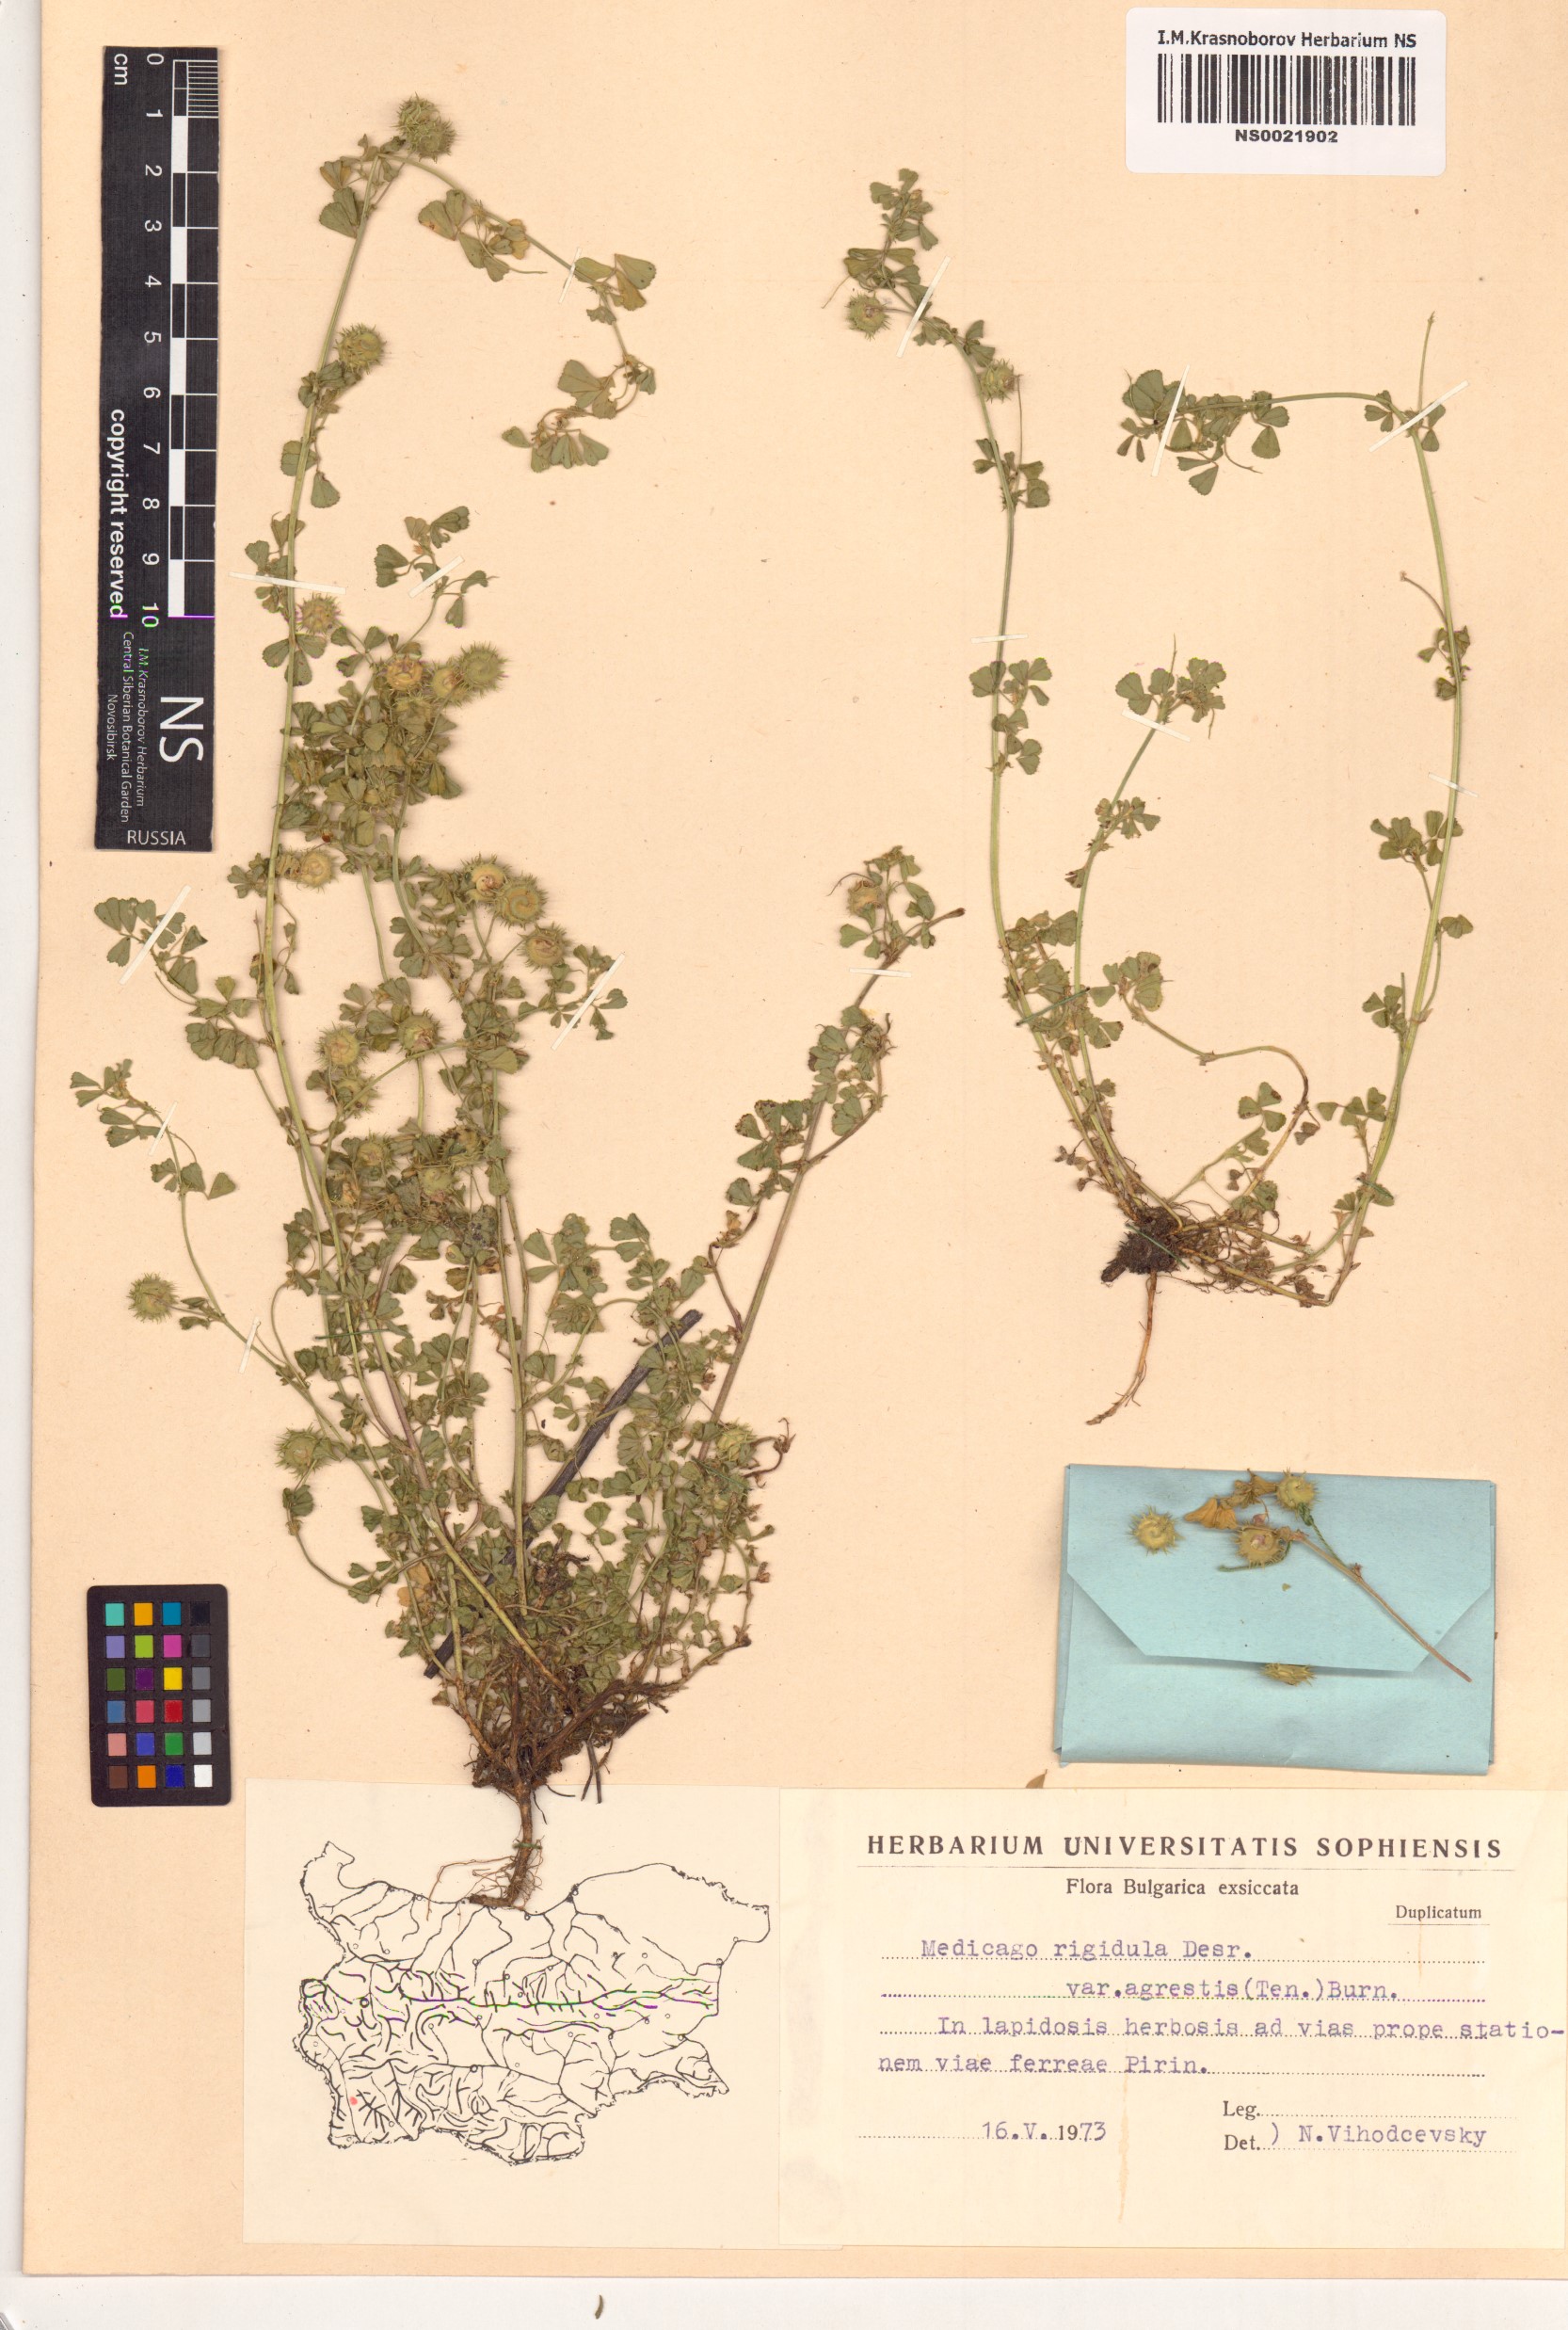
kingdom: Plantae
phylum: Tracheophyta
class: Magnoliopsida
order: Fabales
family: Fabaceae
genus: Medicago
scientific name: Medicago rigidula
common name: Tifton medic
